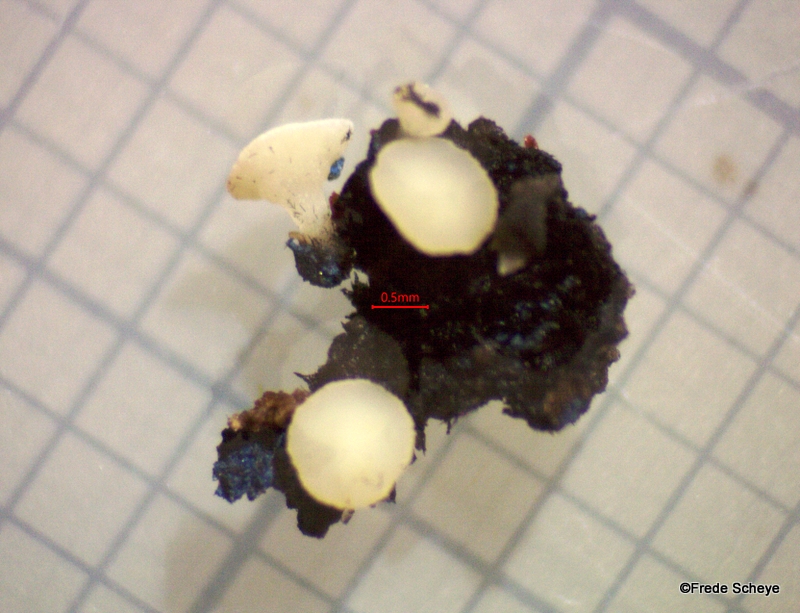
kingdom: Fungi
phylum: Ascomycota
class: Leotiomycetes
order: Helotiales
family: Helotiaceae
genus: Bispora
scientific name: Bispora pallescens
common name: måtte-snitskive
